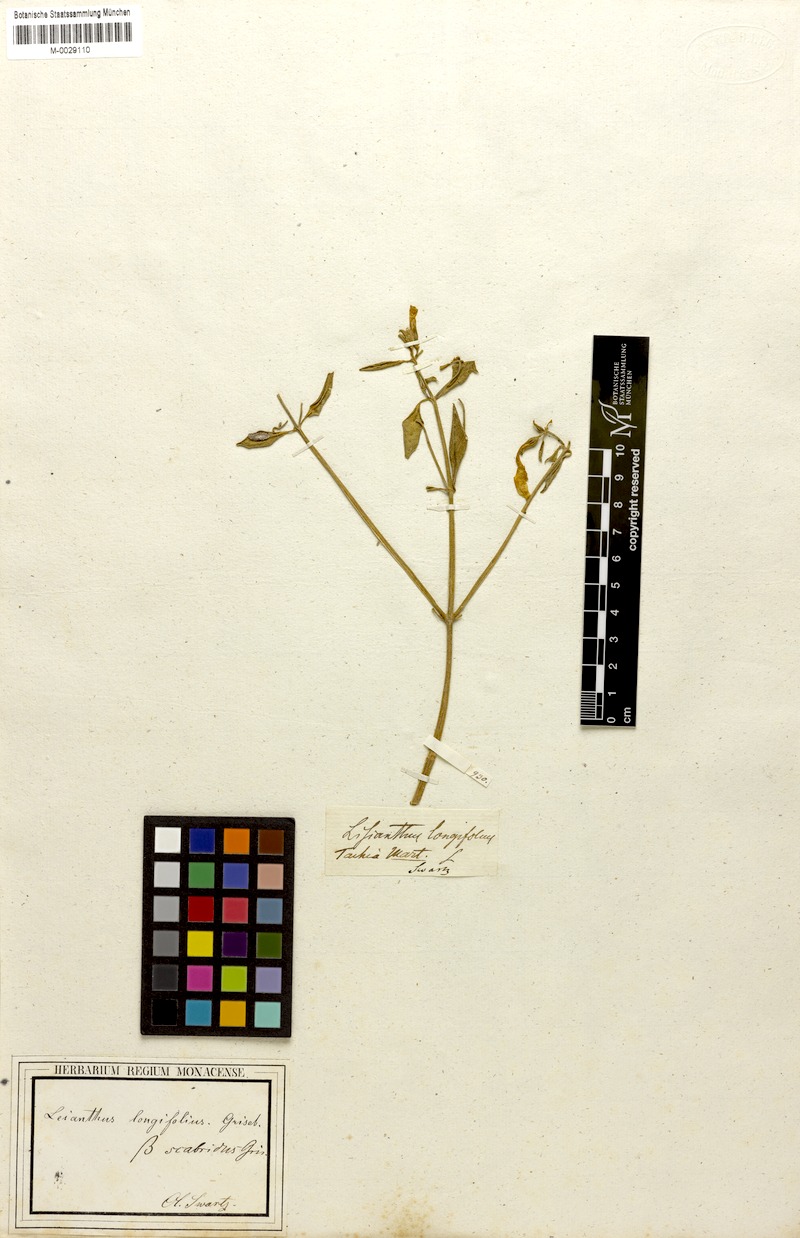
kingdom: Plantae
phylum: Tracheophyta
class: Magnoliopsida
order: Gentianales
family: Gentianaceae
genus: Lisianthus
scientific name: Lisianthus longifolius
